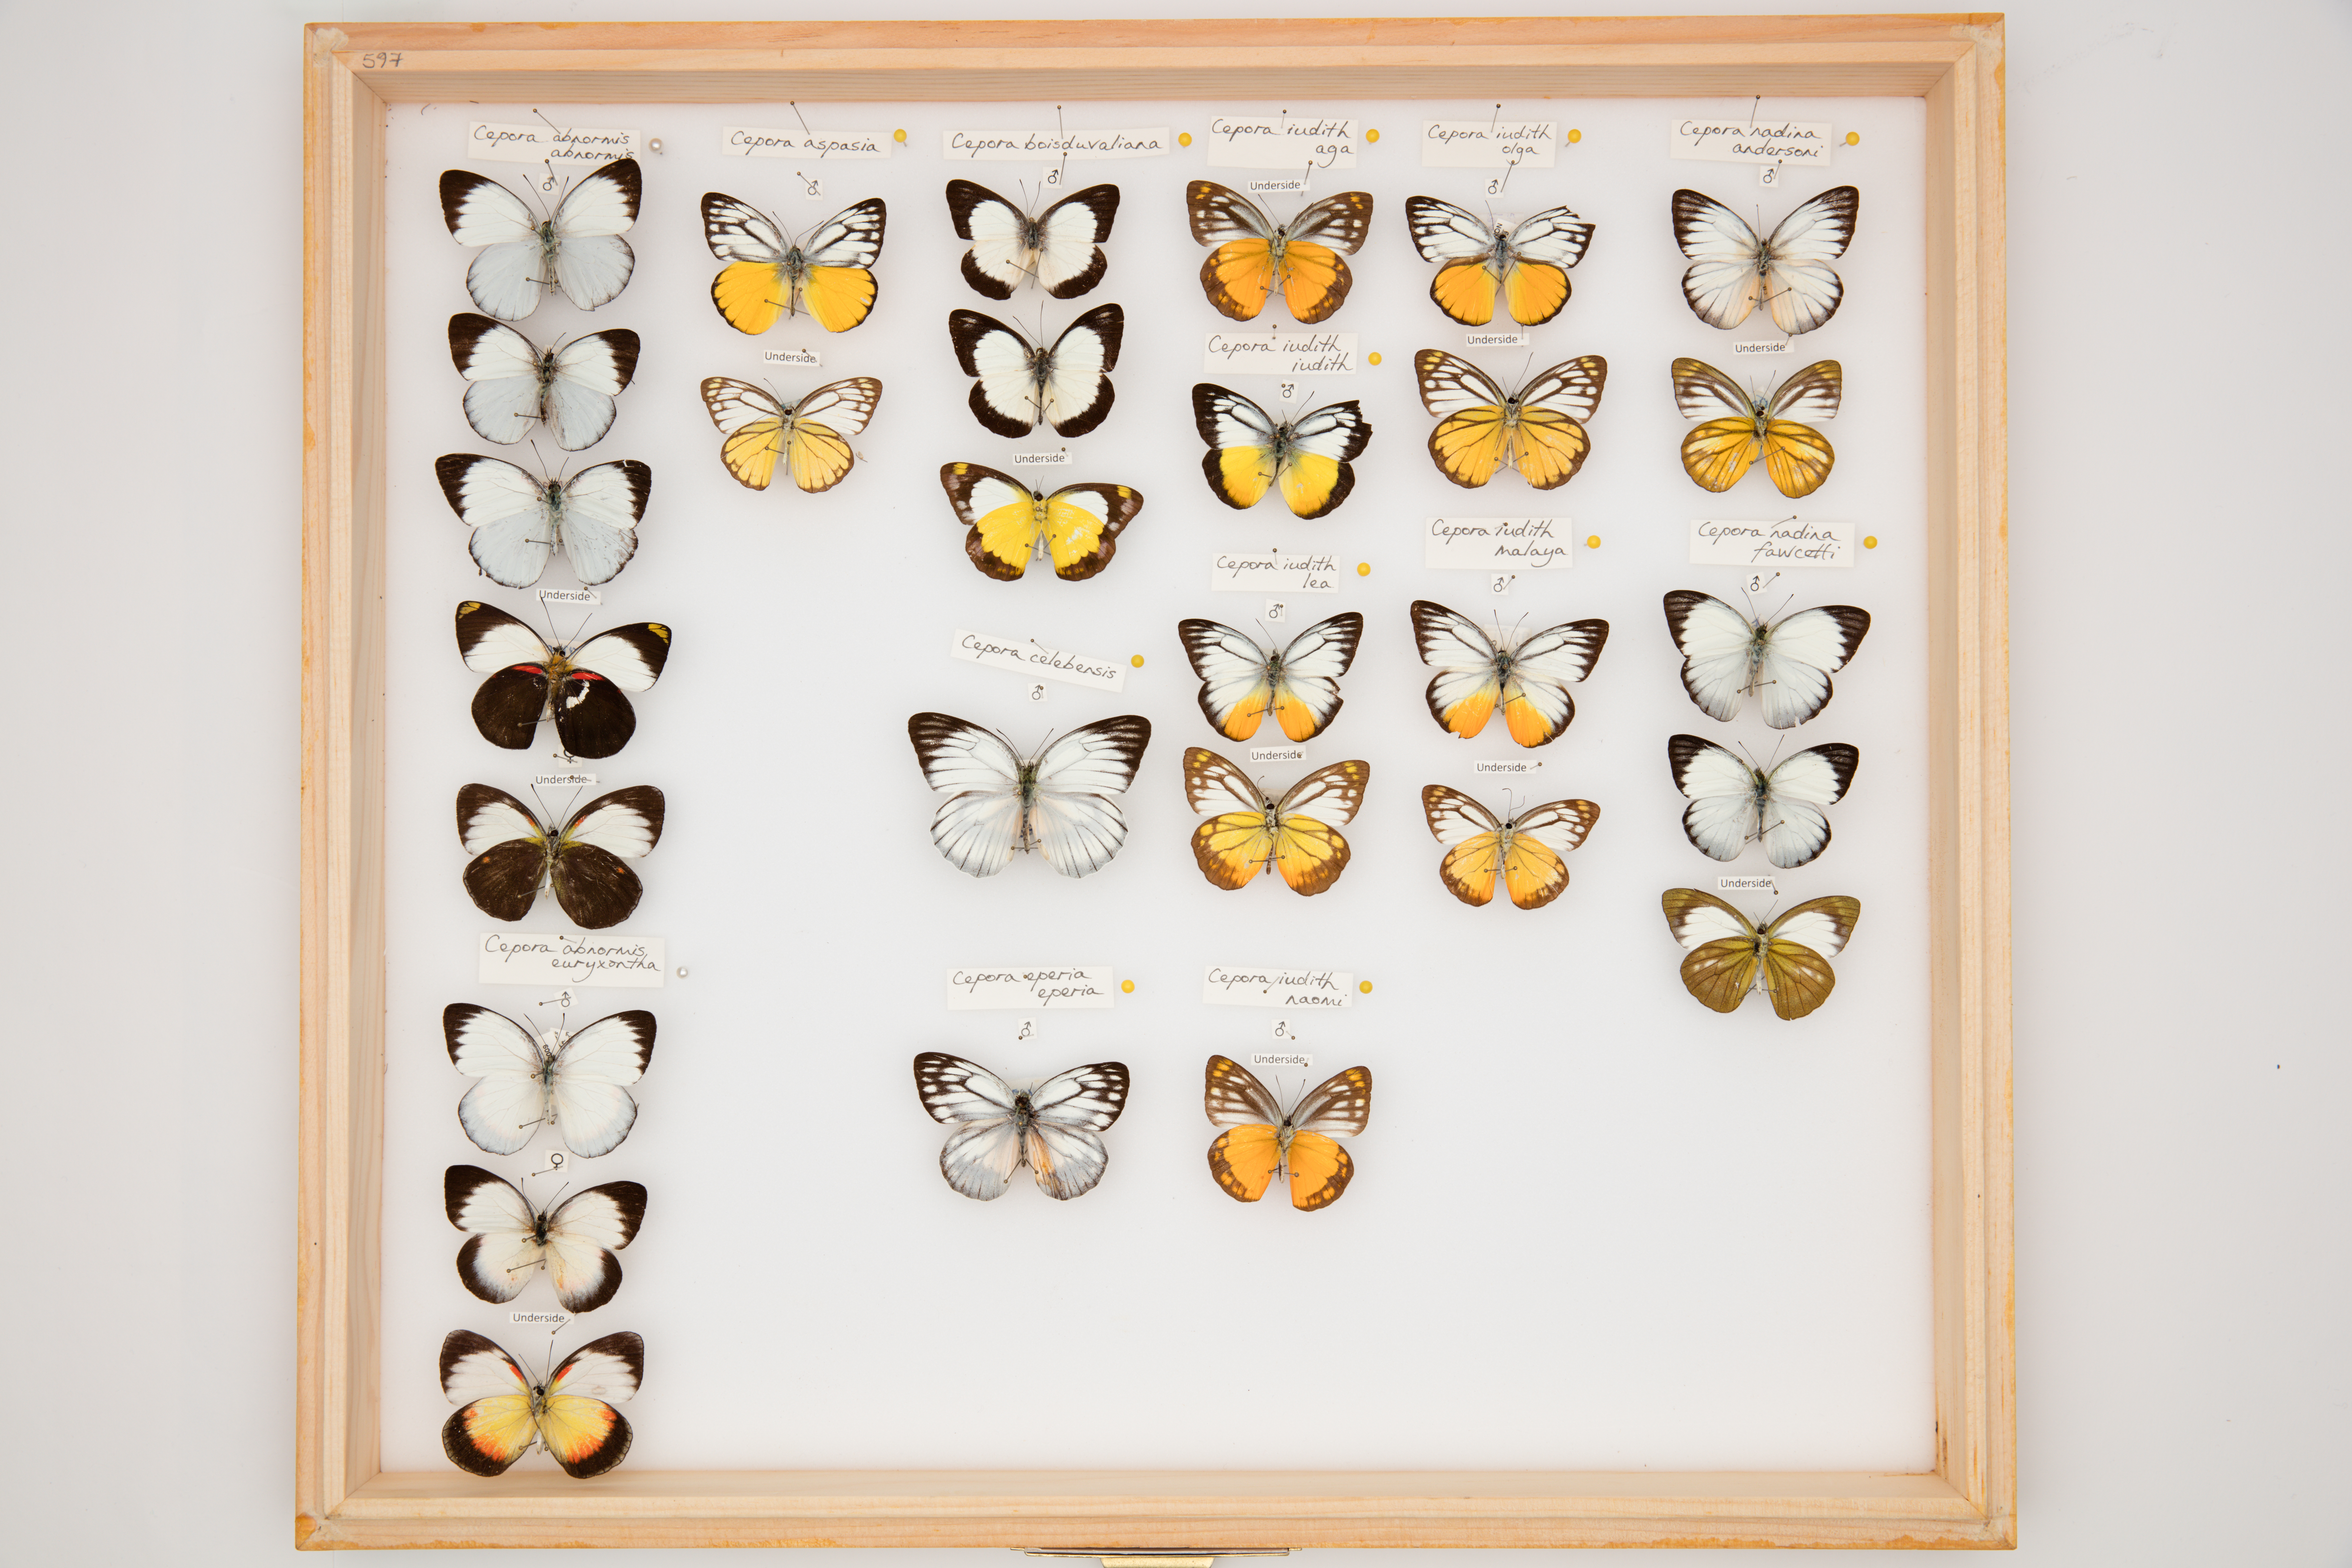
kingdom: Animalia
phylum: Arthropoda
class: Insecta
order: Lepidoptera
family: Pieridae
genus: Cepora
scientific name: Cepora iudith
